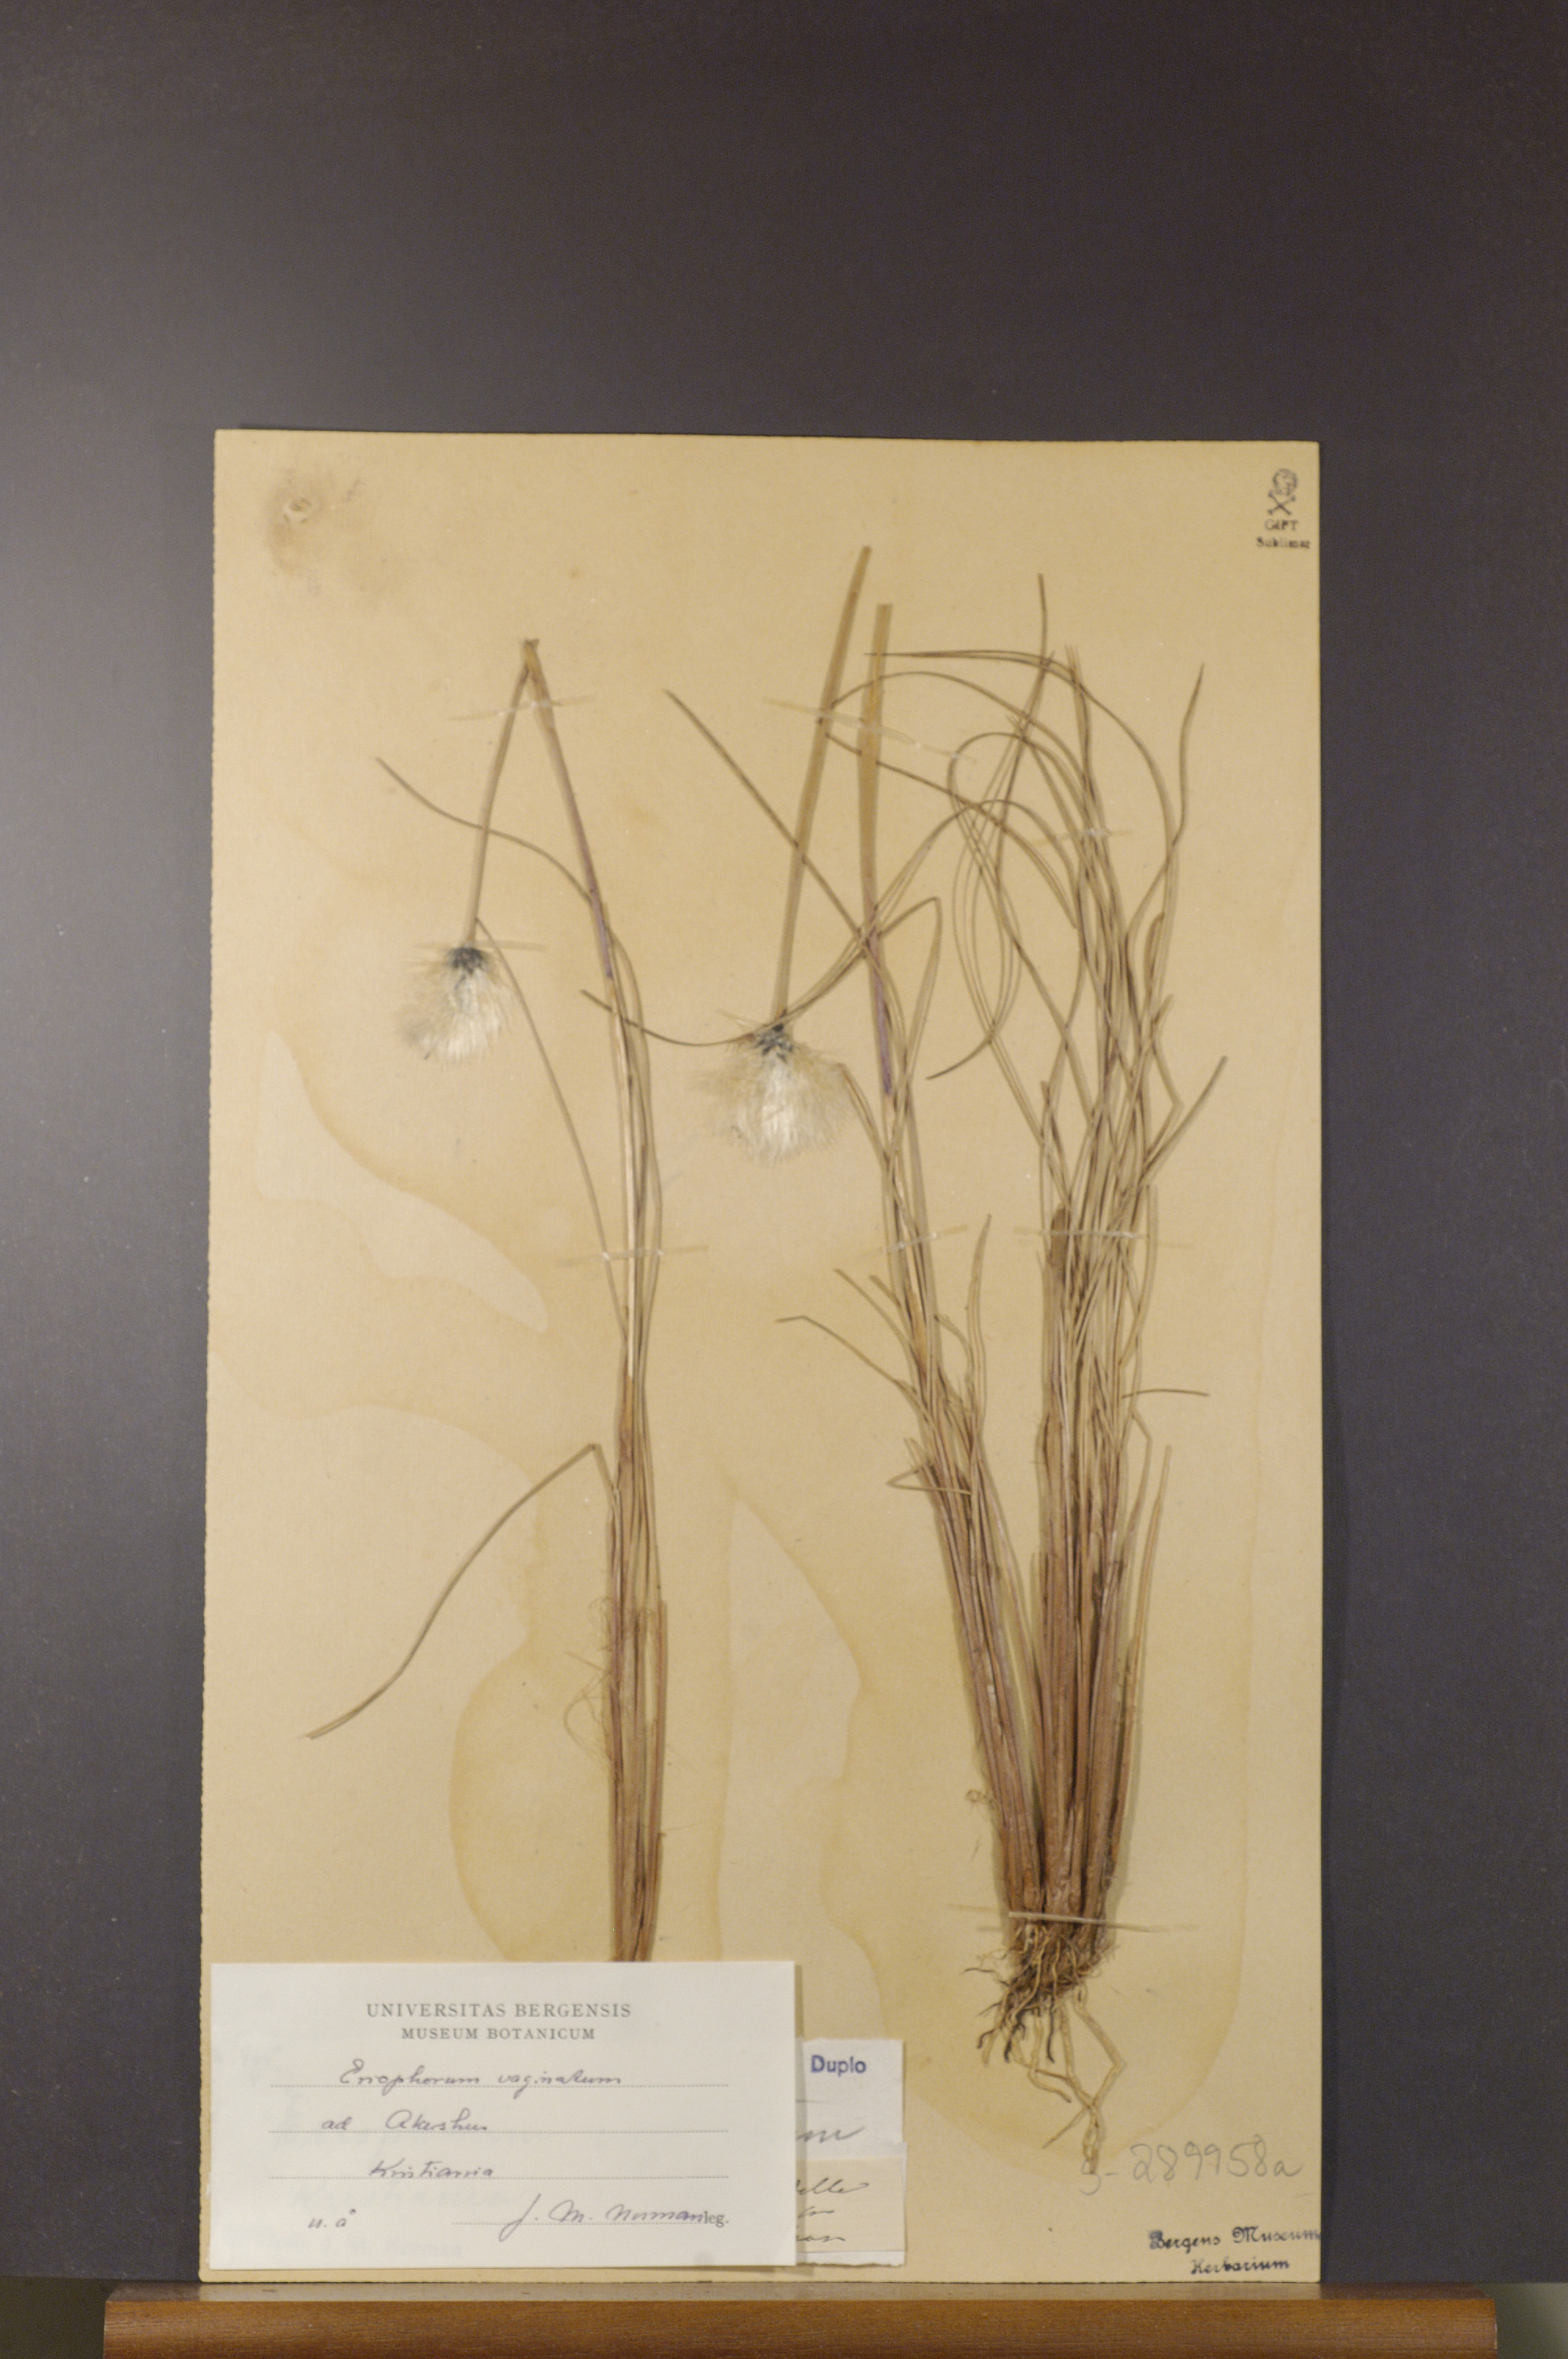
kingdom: Plantae
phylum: Tracheophyta
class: Liliopsida
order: Poales
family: Cyperaceae
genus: Eriophorum
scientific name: Eriophorum vaginatum
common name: Hare's-tail cottongrass
